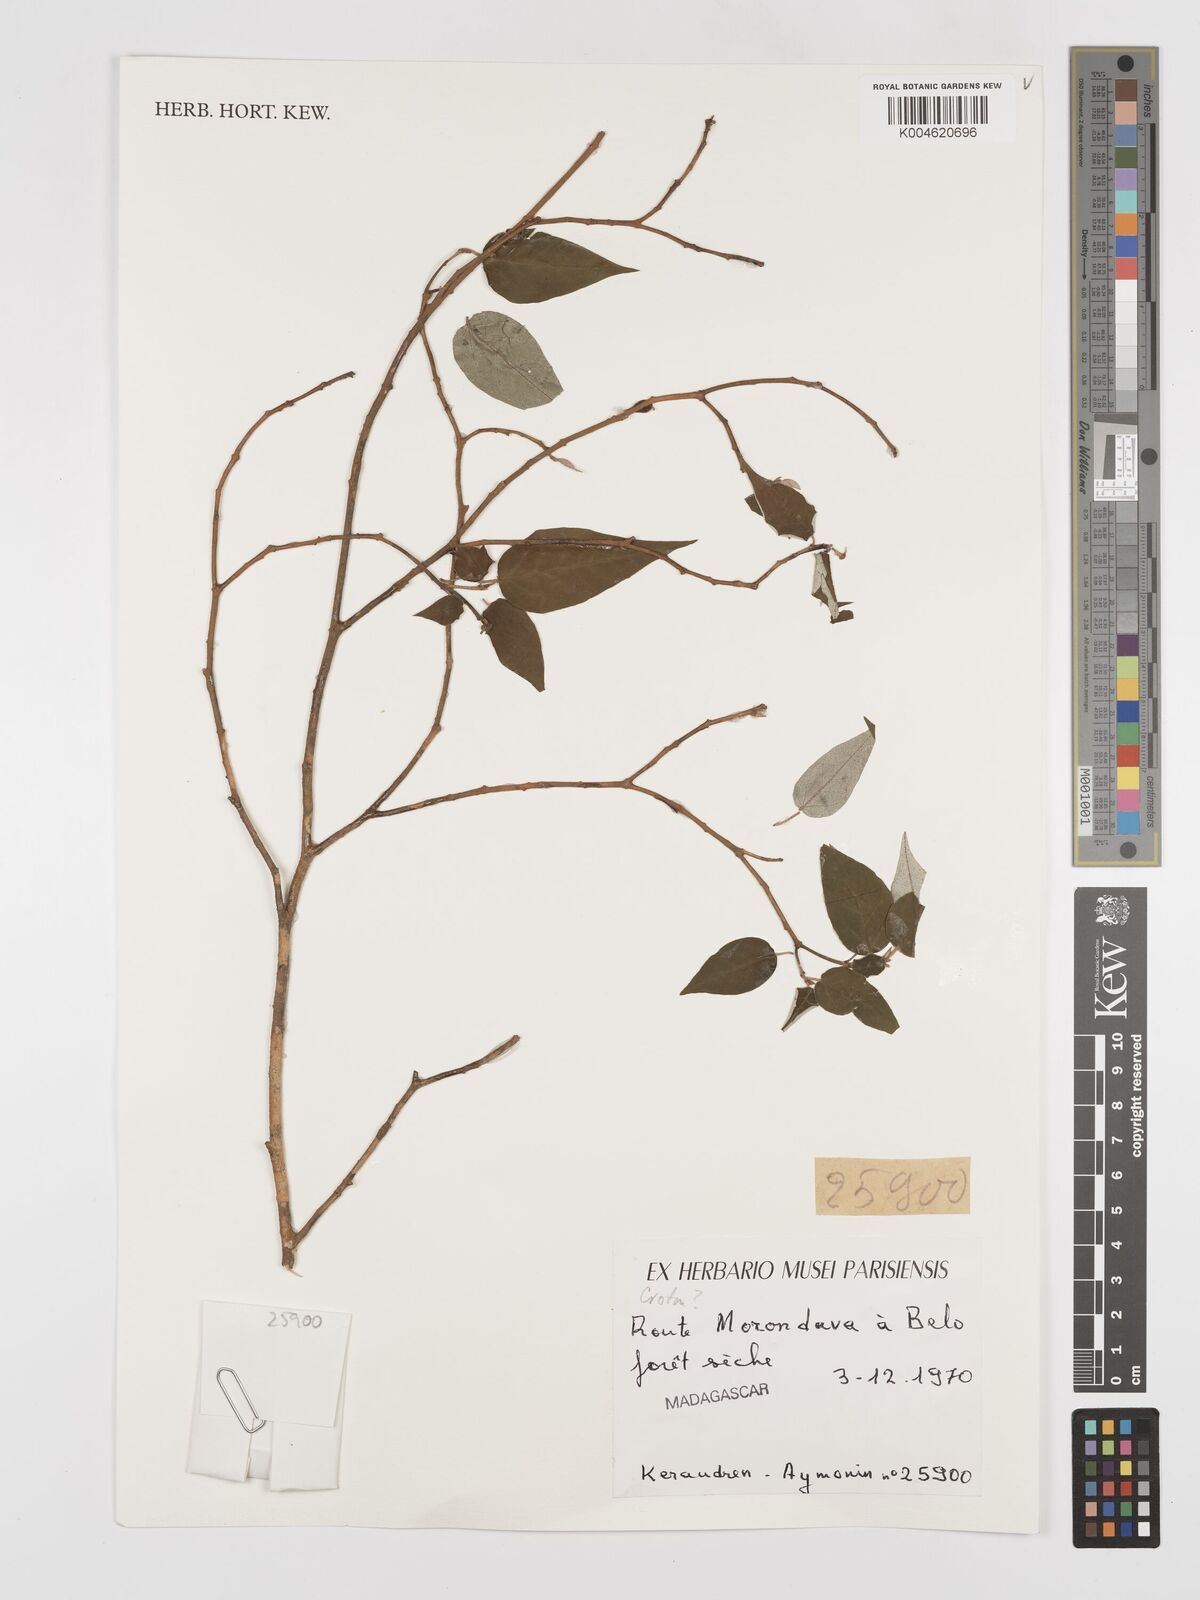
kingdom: Plantae
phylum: Tracheophyta
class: Magnoliopsida
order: Malpighiales
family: Euphorbiaceae
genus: Croton
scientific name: Croton
